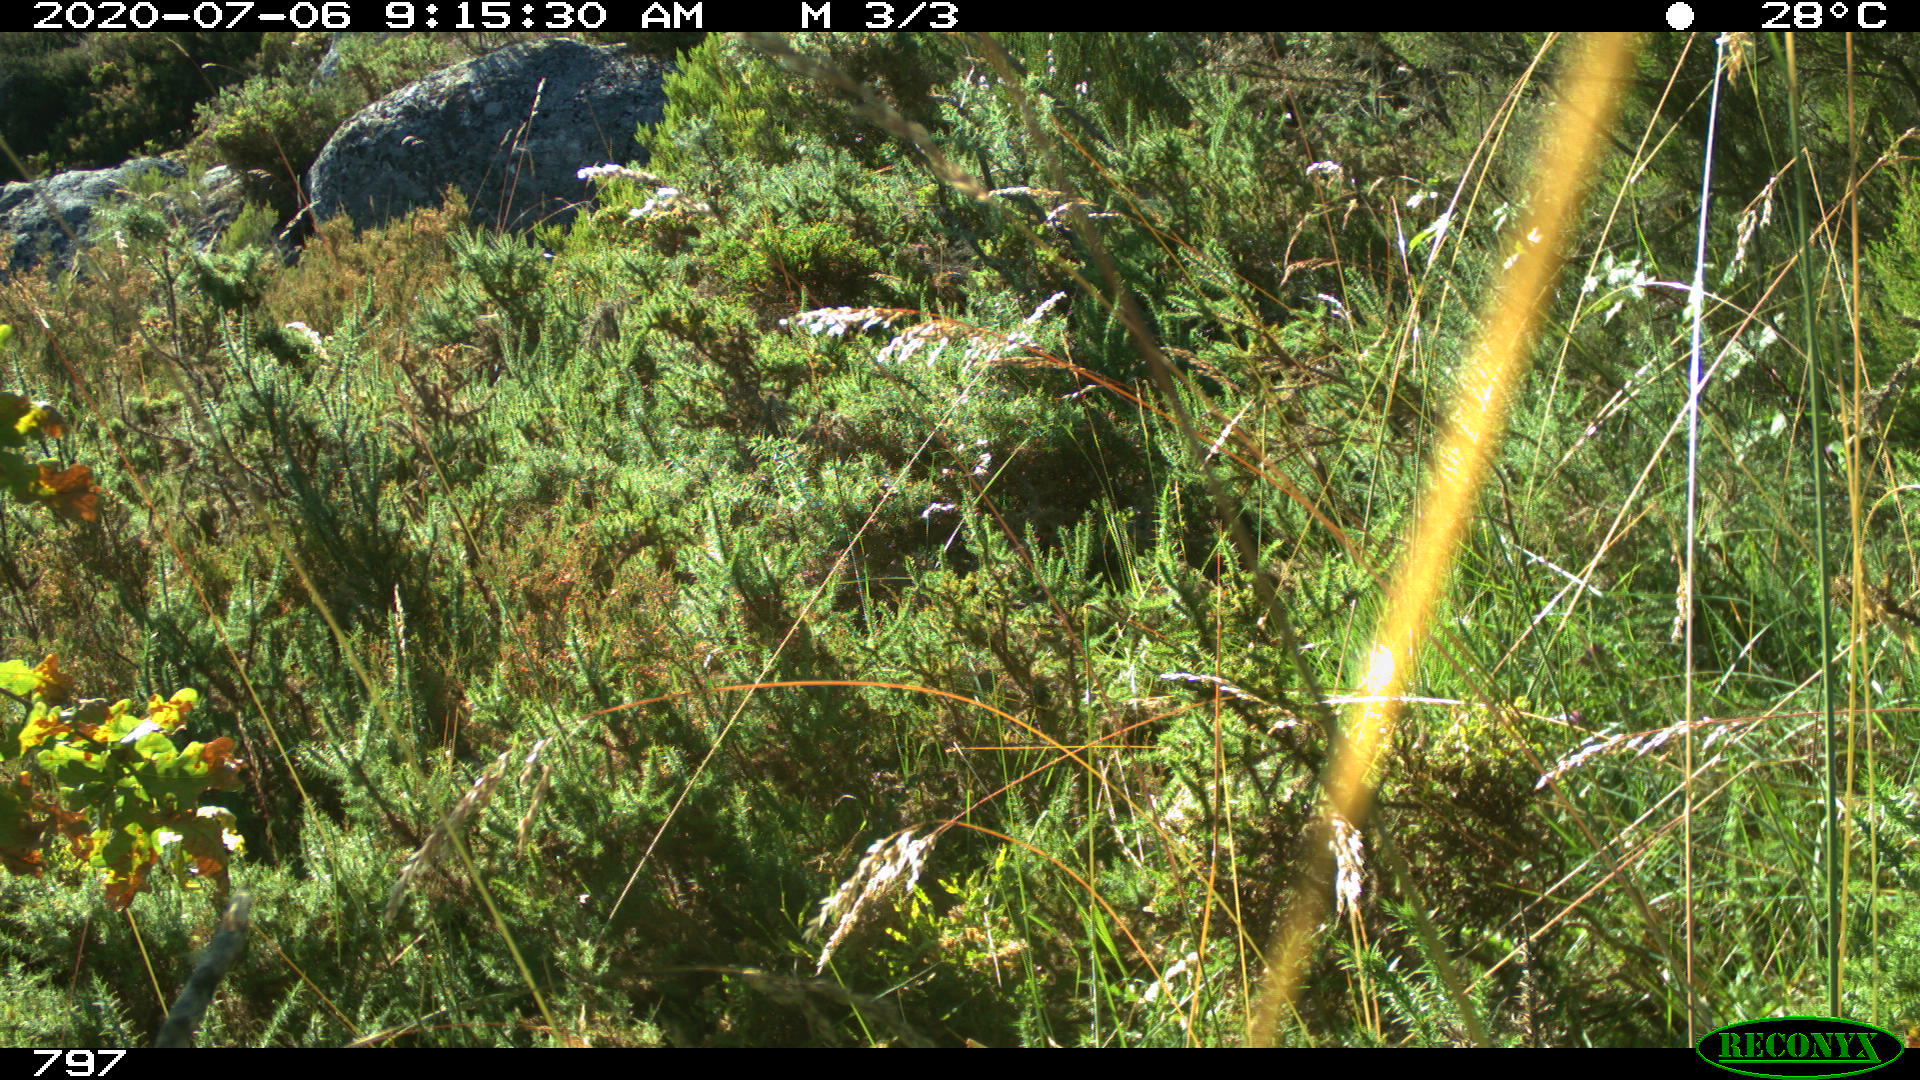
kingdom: Animalia
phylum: Chordata
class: Aves
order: Passeriformes
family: Emberizidae
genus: Emberiza
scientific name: Emberiza cia
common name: Rock bunting
